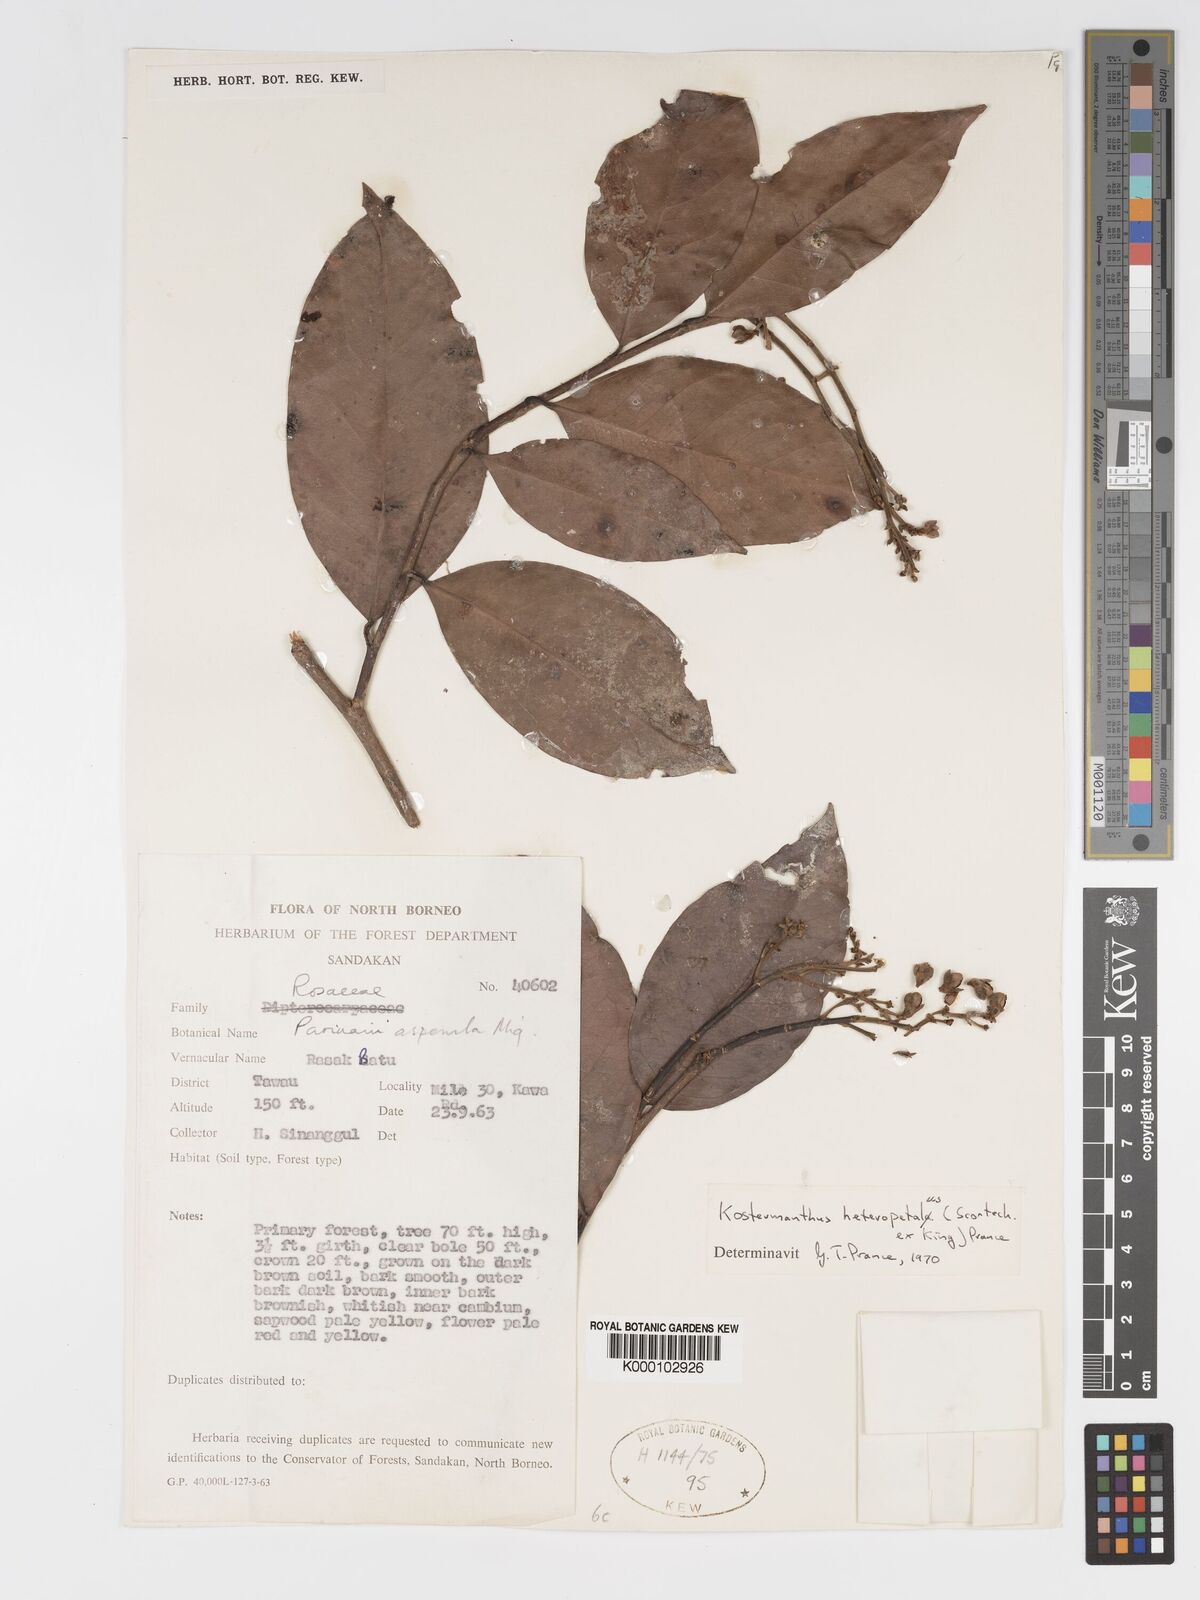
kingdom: Plantae
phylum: Tracheophyta
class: Magnoliopsida
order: Malpighiales
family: Chrysobalanaceae
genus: Kostermanthus
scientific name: Kostermanthus heteropetalus
